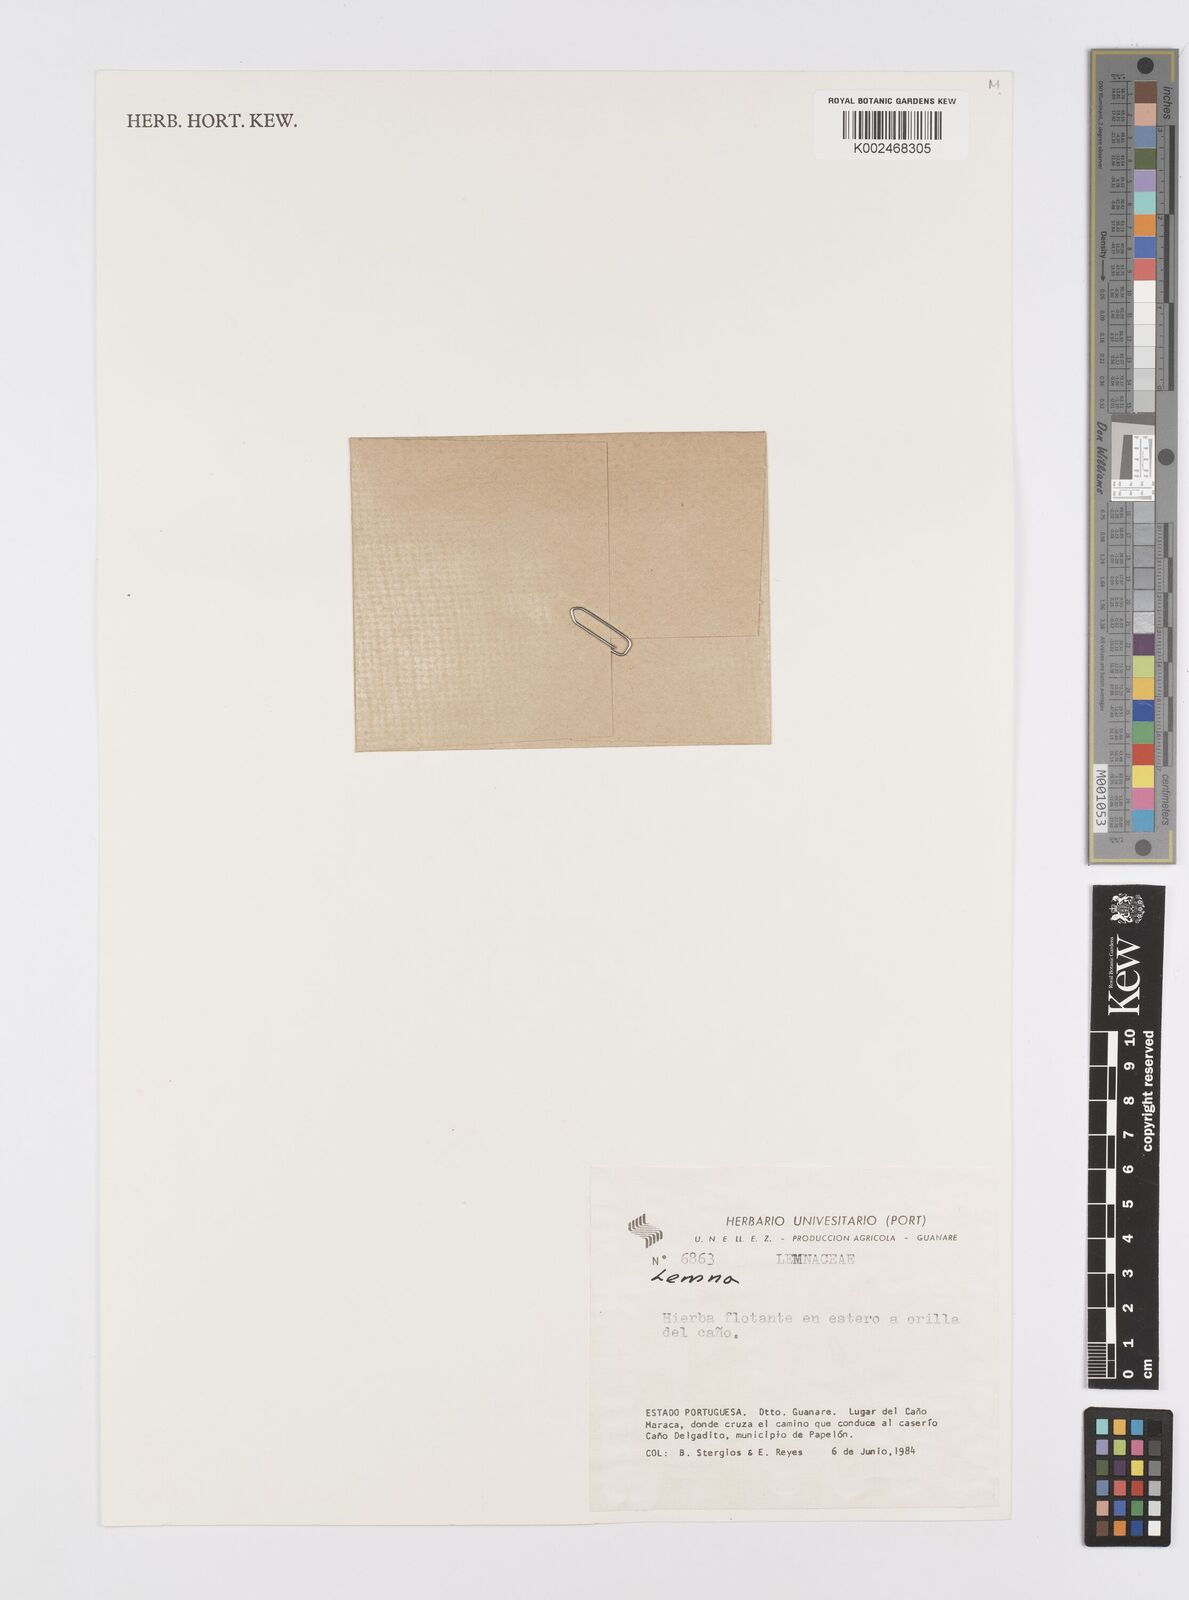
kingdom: Plantae
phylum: Tracheophyta
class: Liliopsida
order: Alismatales
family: Araceae
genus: Lemna
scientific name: Lemna
